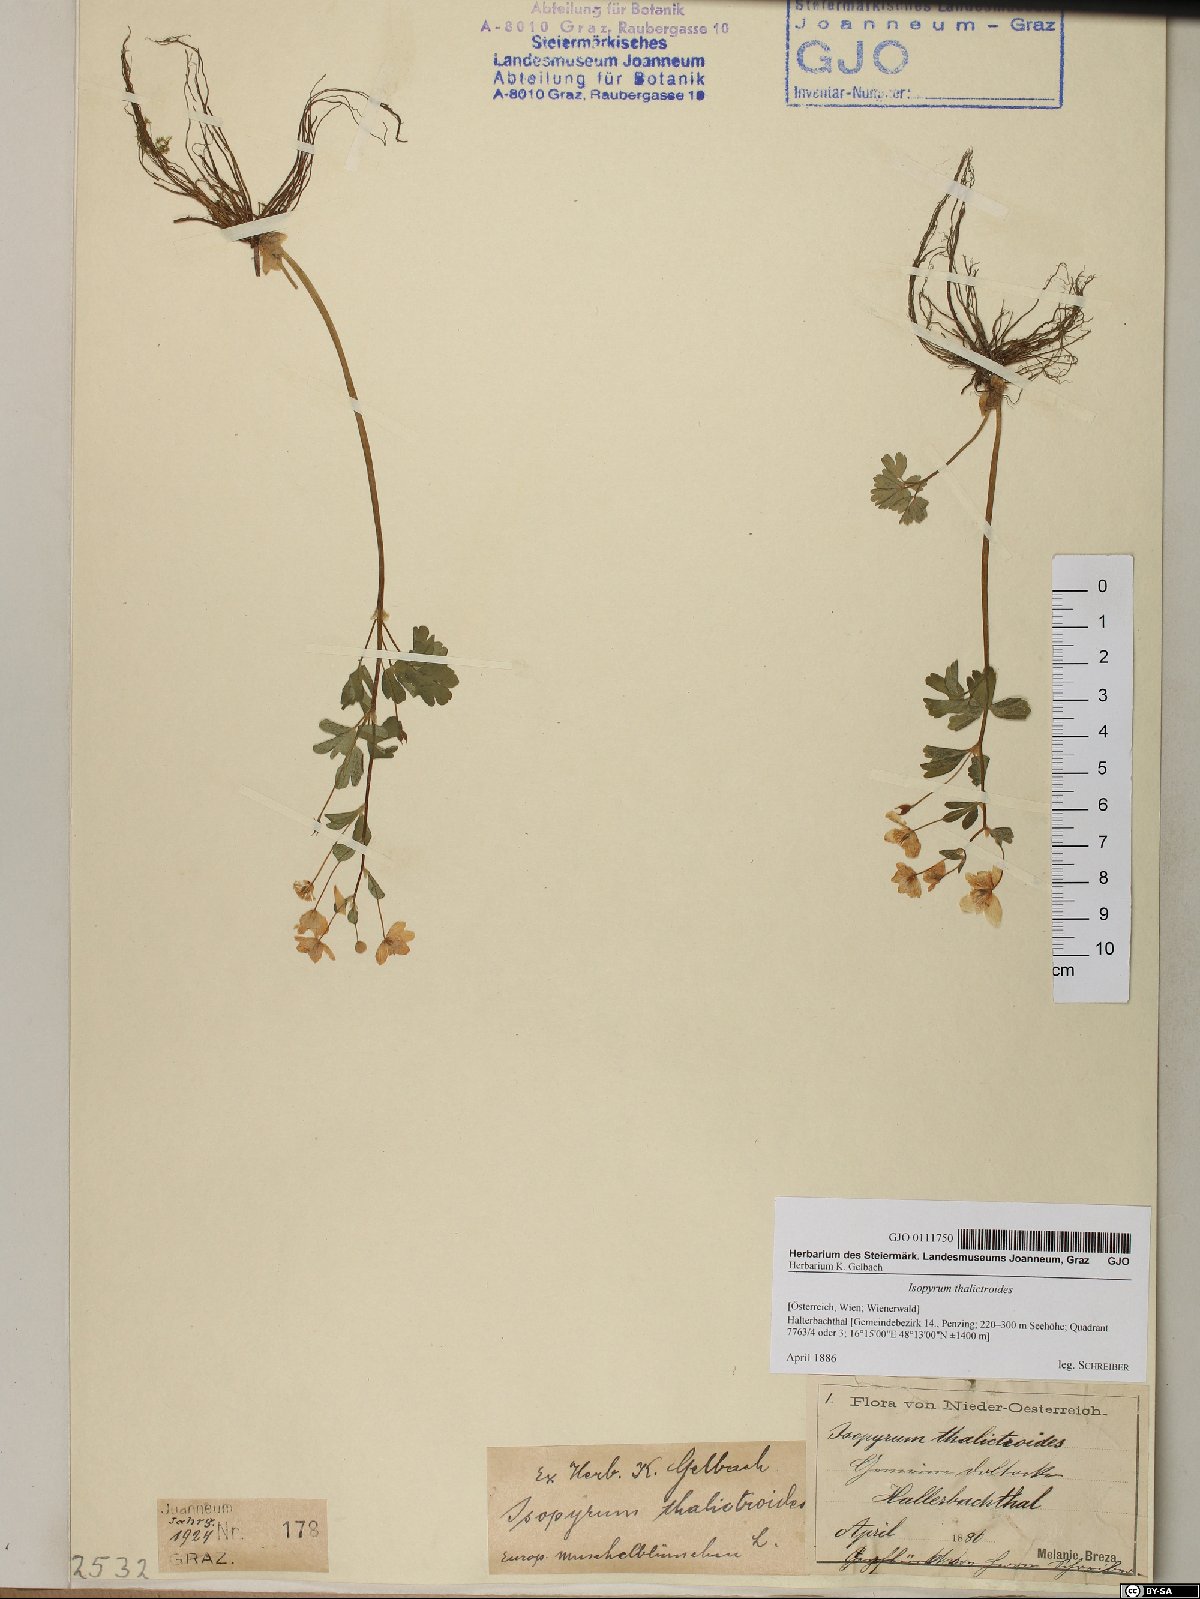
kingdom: Plantae
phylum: Tracheophyta
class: Magnoliopsida
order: Ranunculales
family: Ranunculaceae
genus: Isopyrum
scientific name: Isopyrum thalictroides
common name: Isopyrum
